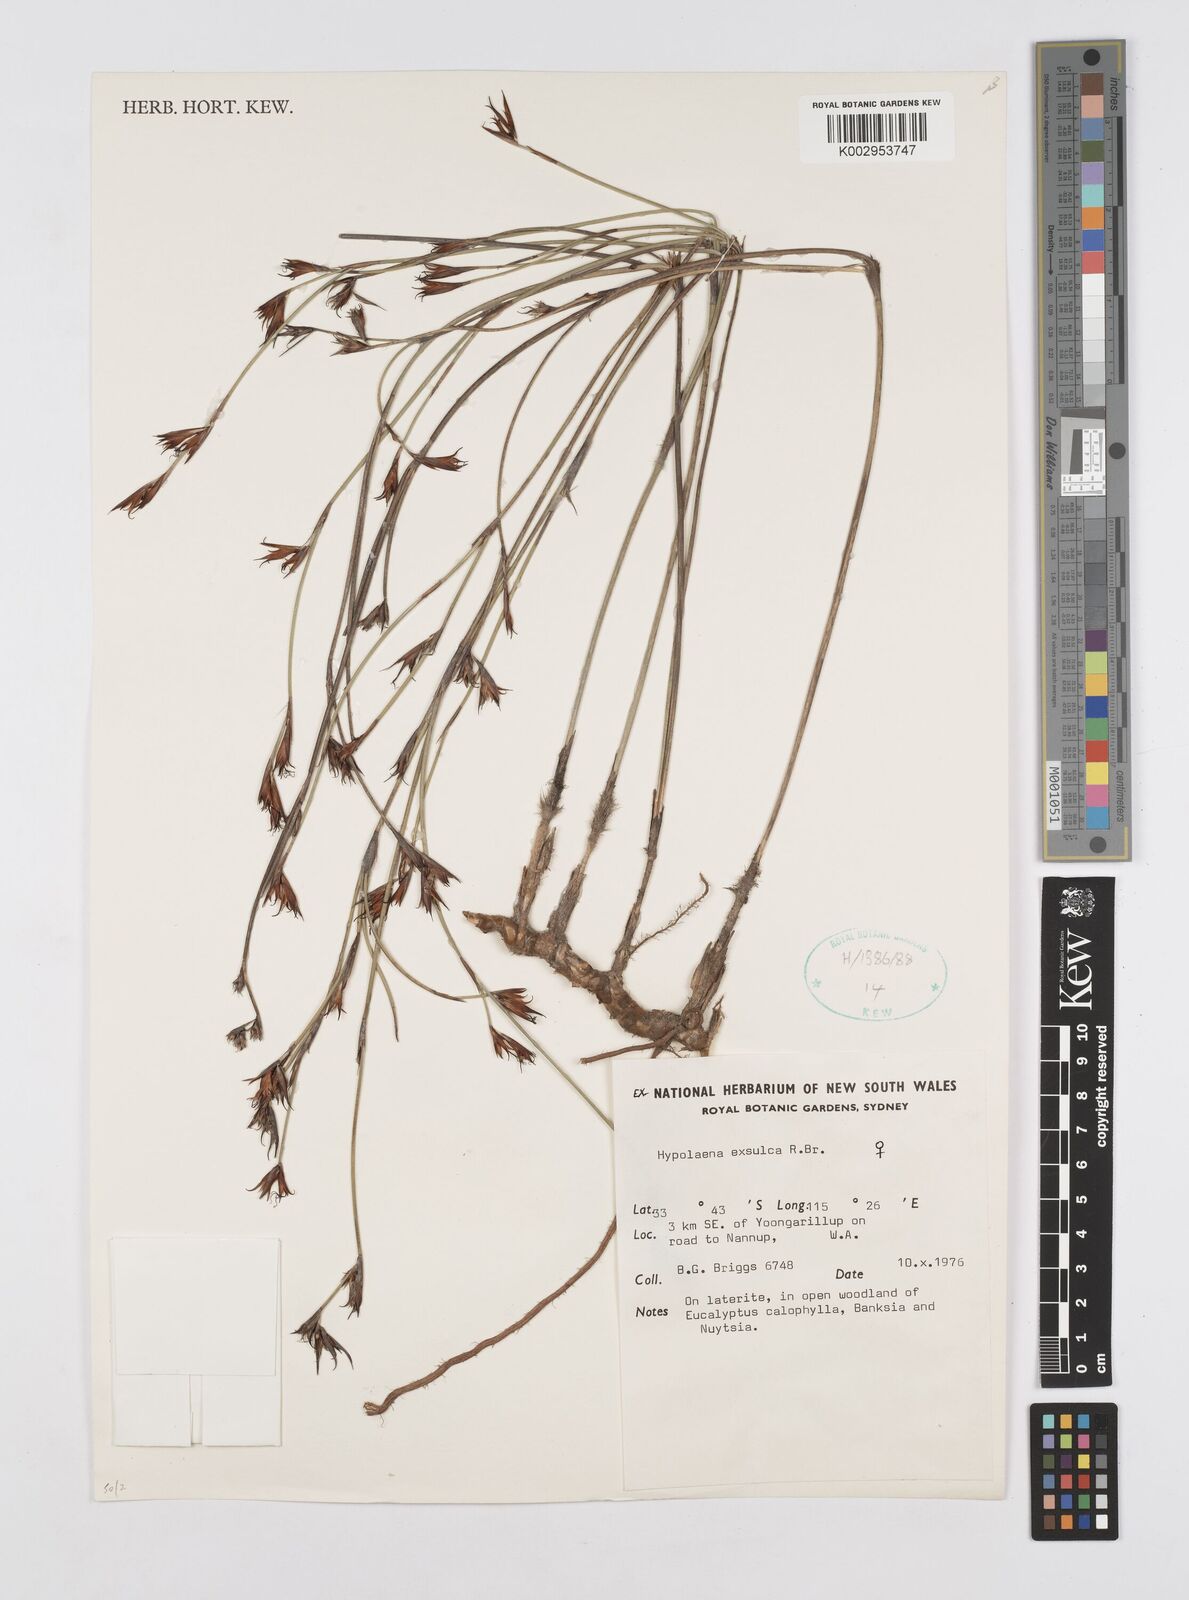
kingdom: Plantae
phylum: Tracheophyta
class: Liliopsida
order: Poales
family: Restionaceae
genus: Hypolaena
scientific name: Hypolaena exsulca
